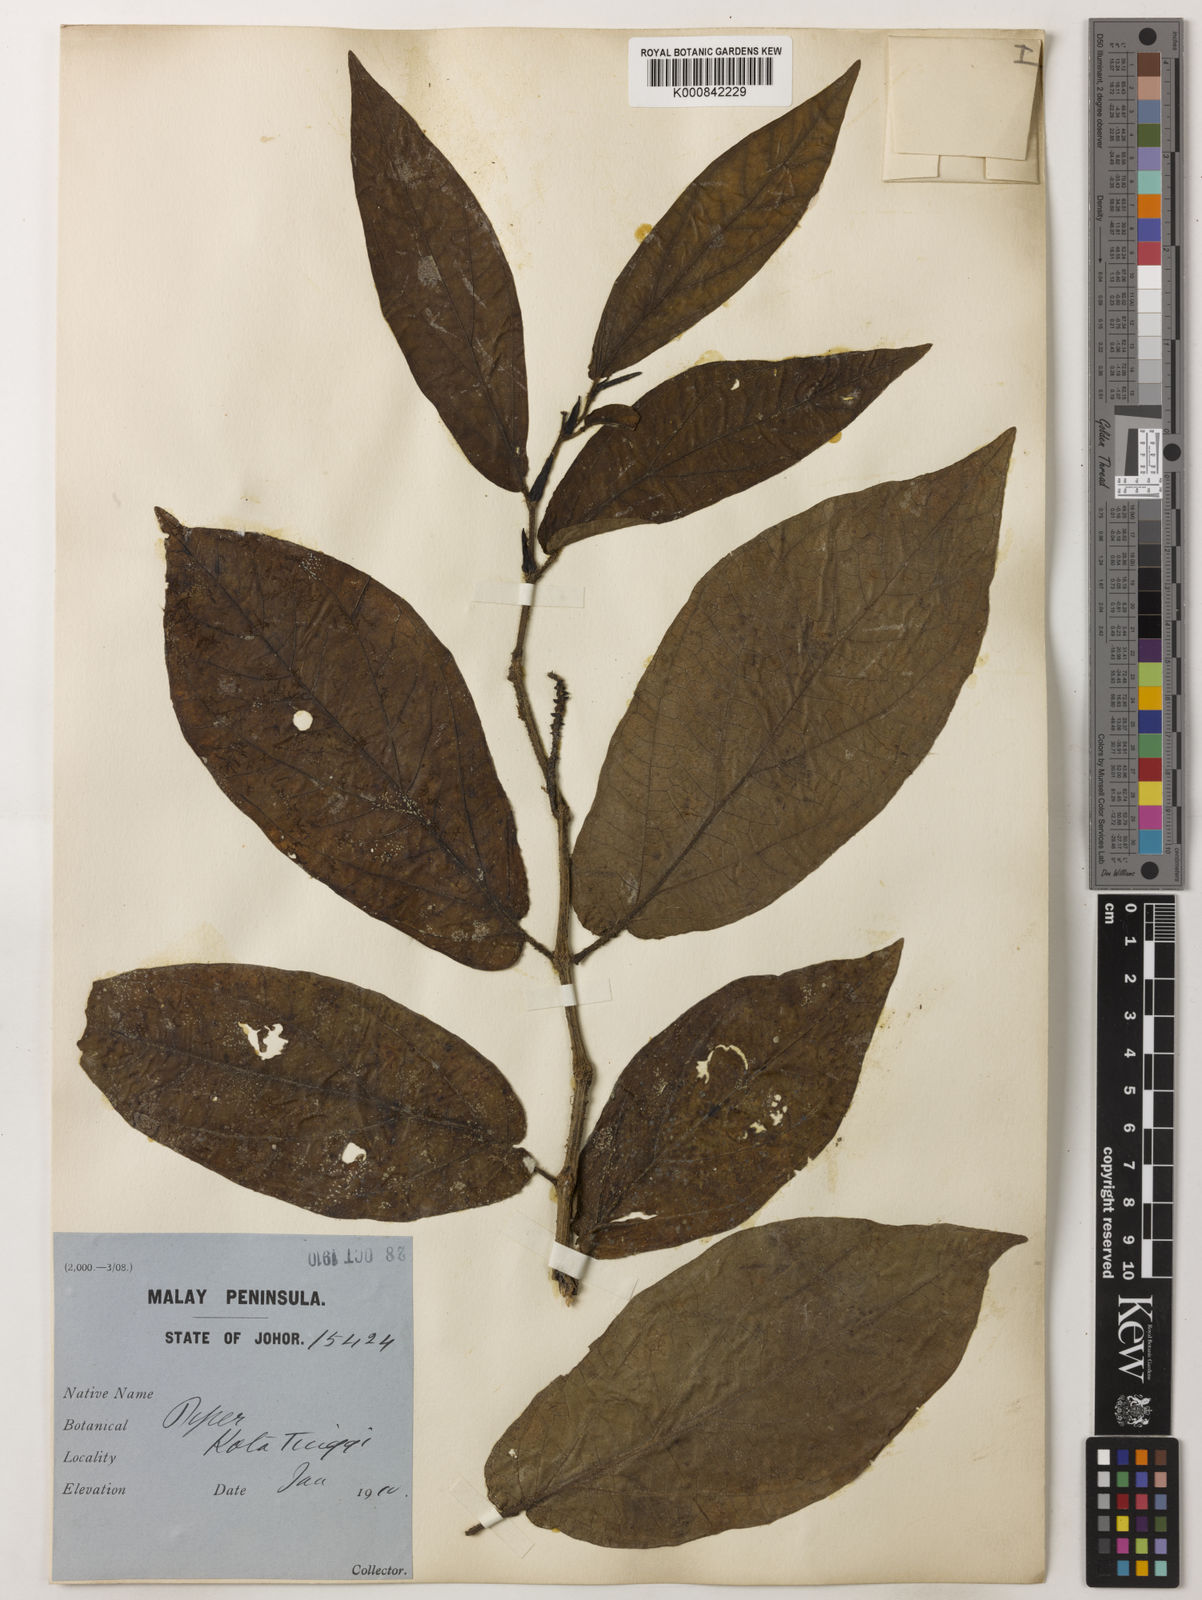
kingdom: Plantae
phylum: Tracheophyta
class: Magnoliopsida
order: Piperales
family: Piperaceae
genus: Piper
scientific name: Piper protractum
